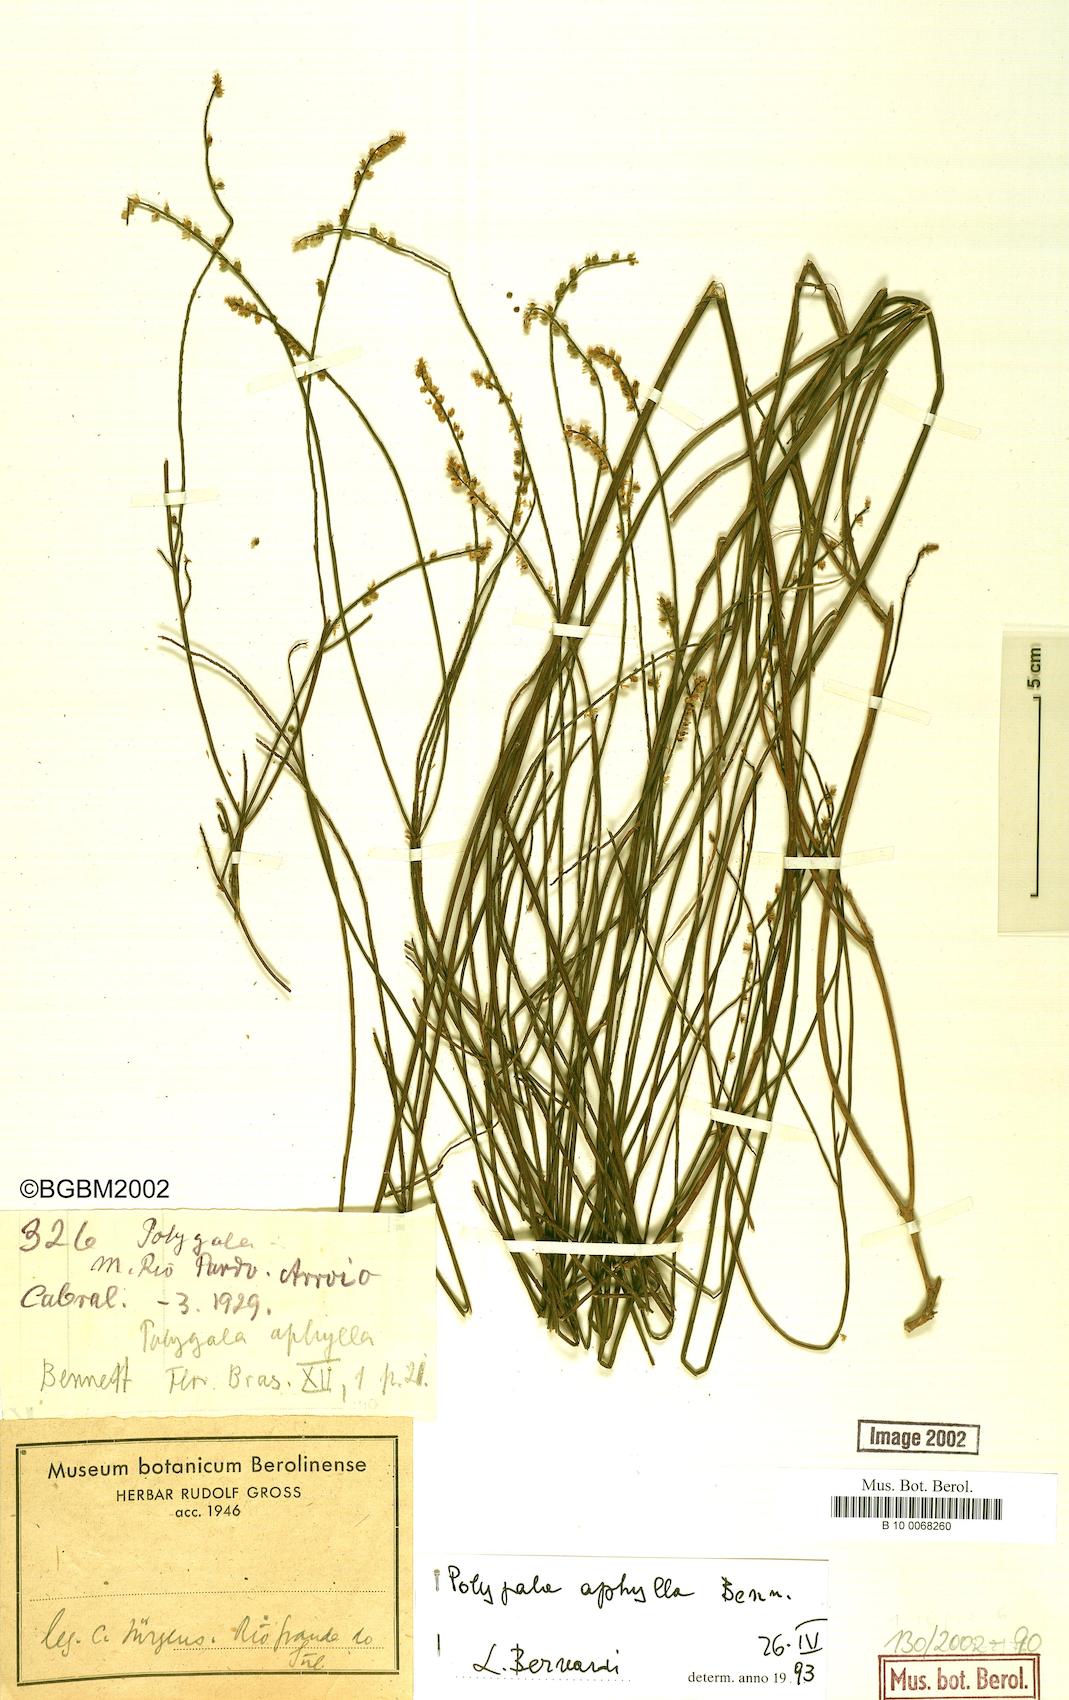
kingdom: Plantae
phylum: Tracheophyta
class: Magnoliopsida
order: Fabales
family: Polygalaceae
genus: Polygala
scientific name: Polygala aphylla
